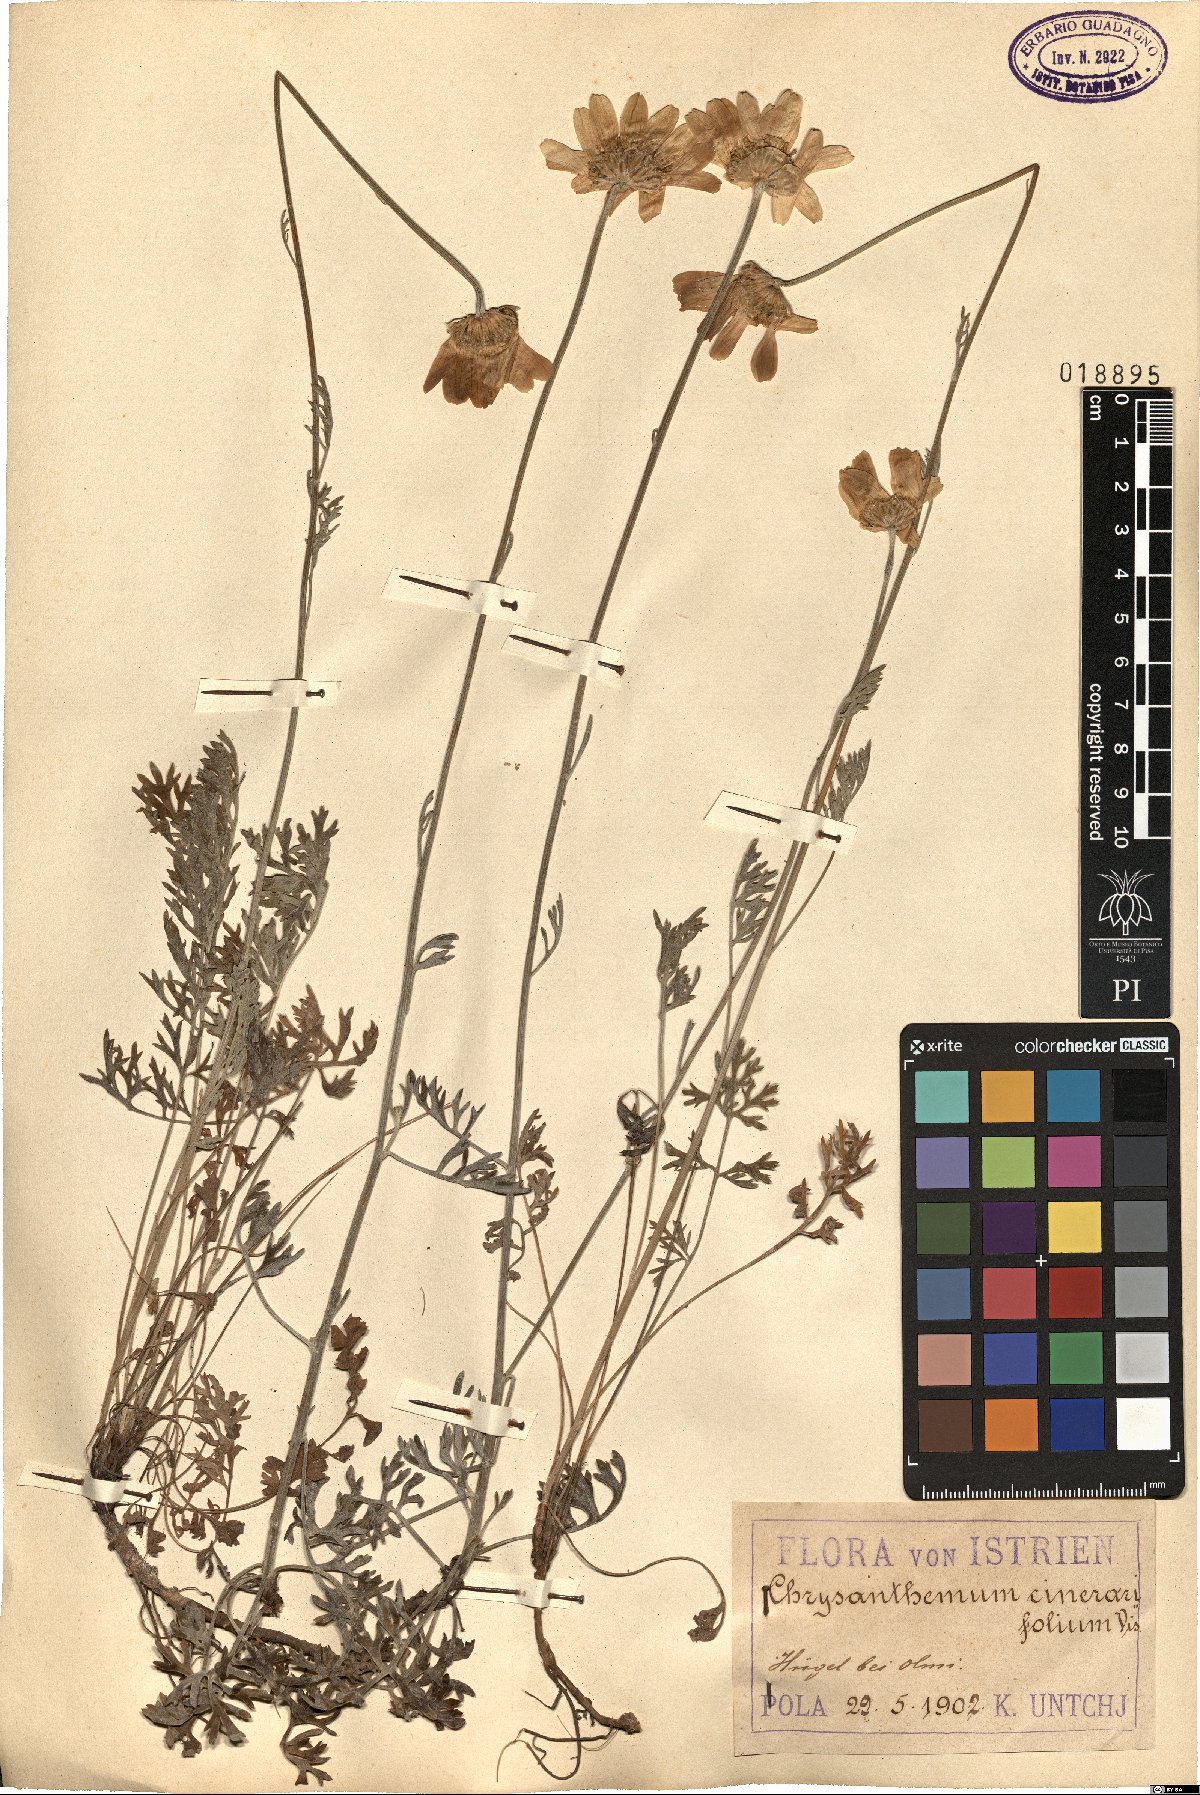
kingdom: Plantae
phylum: Tracheophyta
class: Magnoliopsida
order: Asterales
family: Asteraceae
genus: Tanacetum
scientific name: Tanacetum cinerariifolium
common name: Dalmatian pyrethrum
